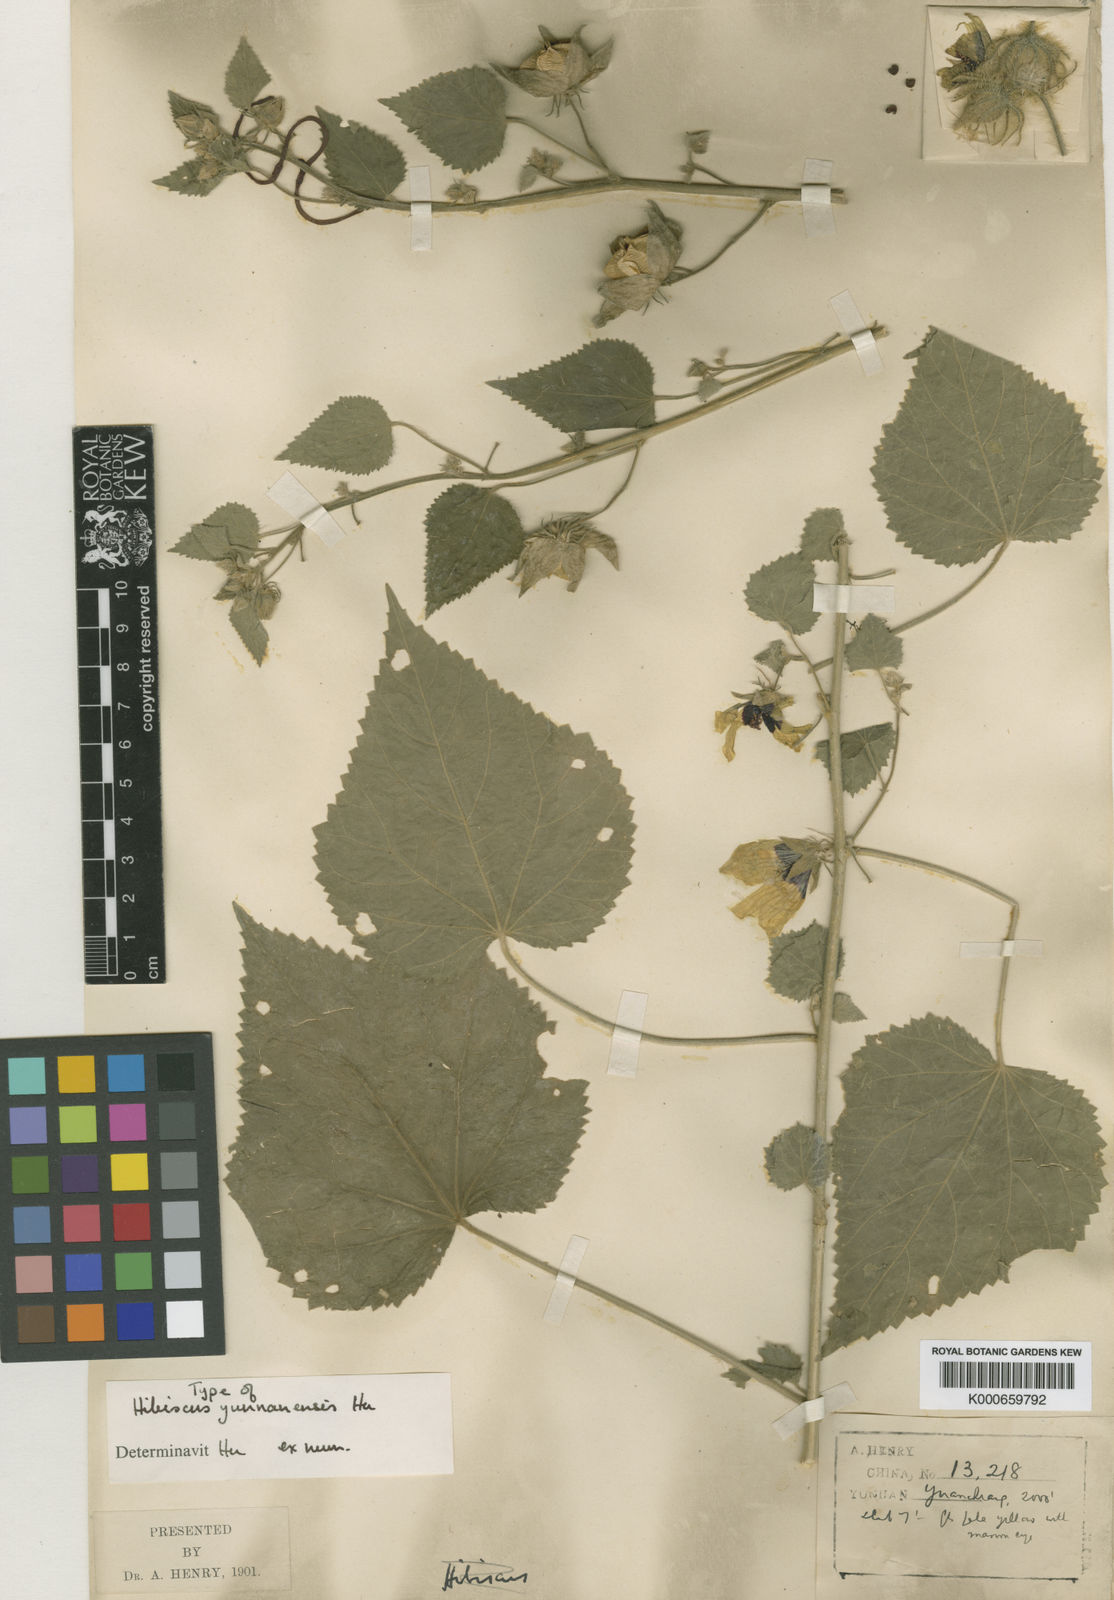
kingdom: Plantae
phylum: Tracheophyta
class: Magnoliopsida
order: Malvales
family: Malvaceae
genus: Hibiscus
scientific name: Hibiscus yunnanensis
